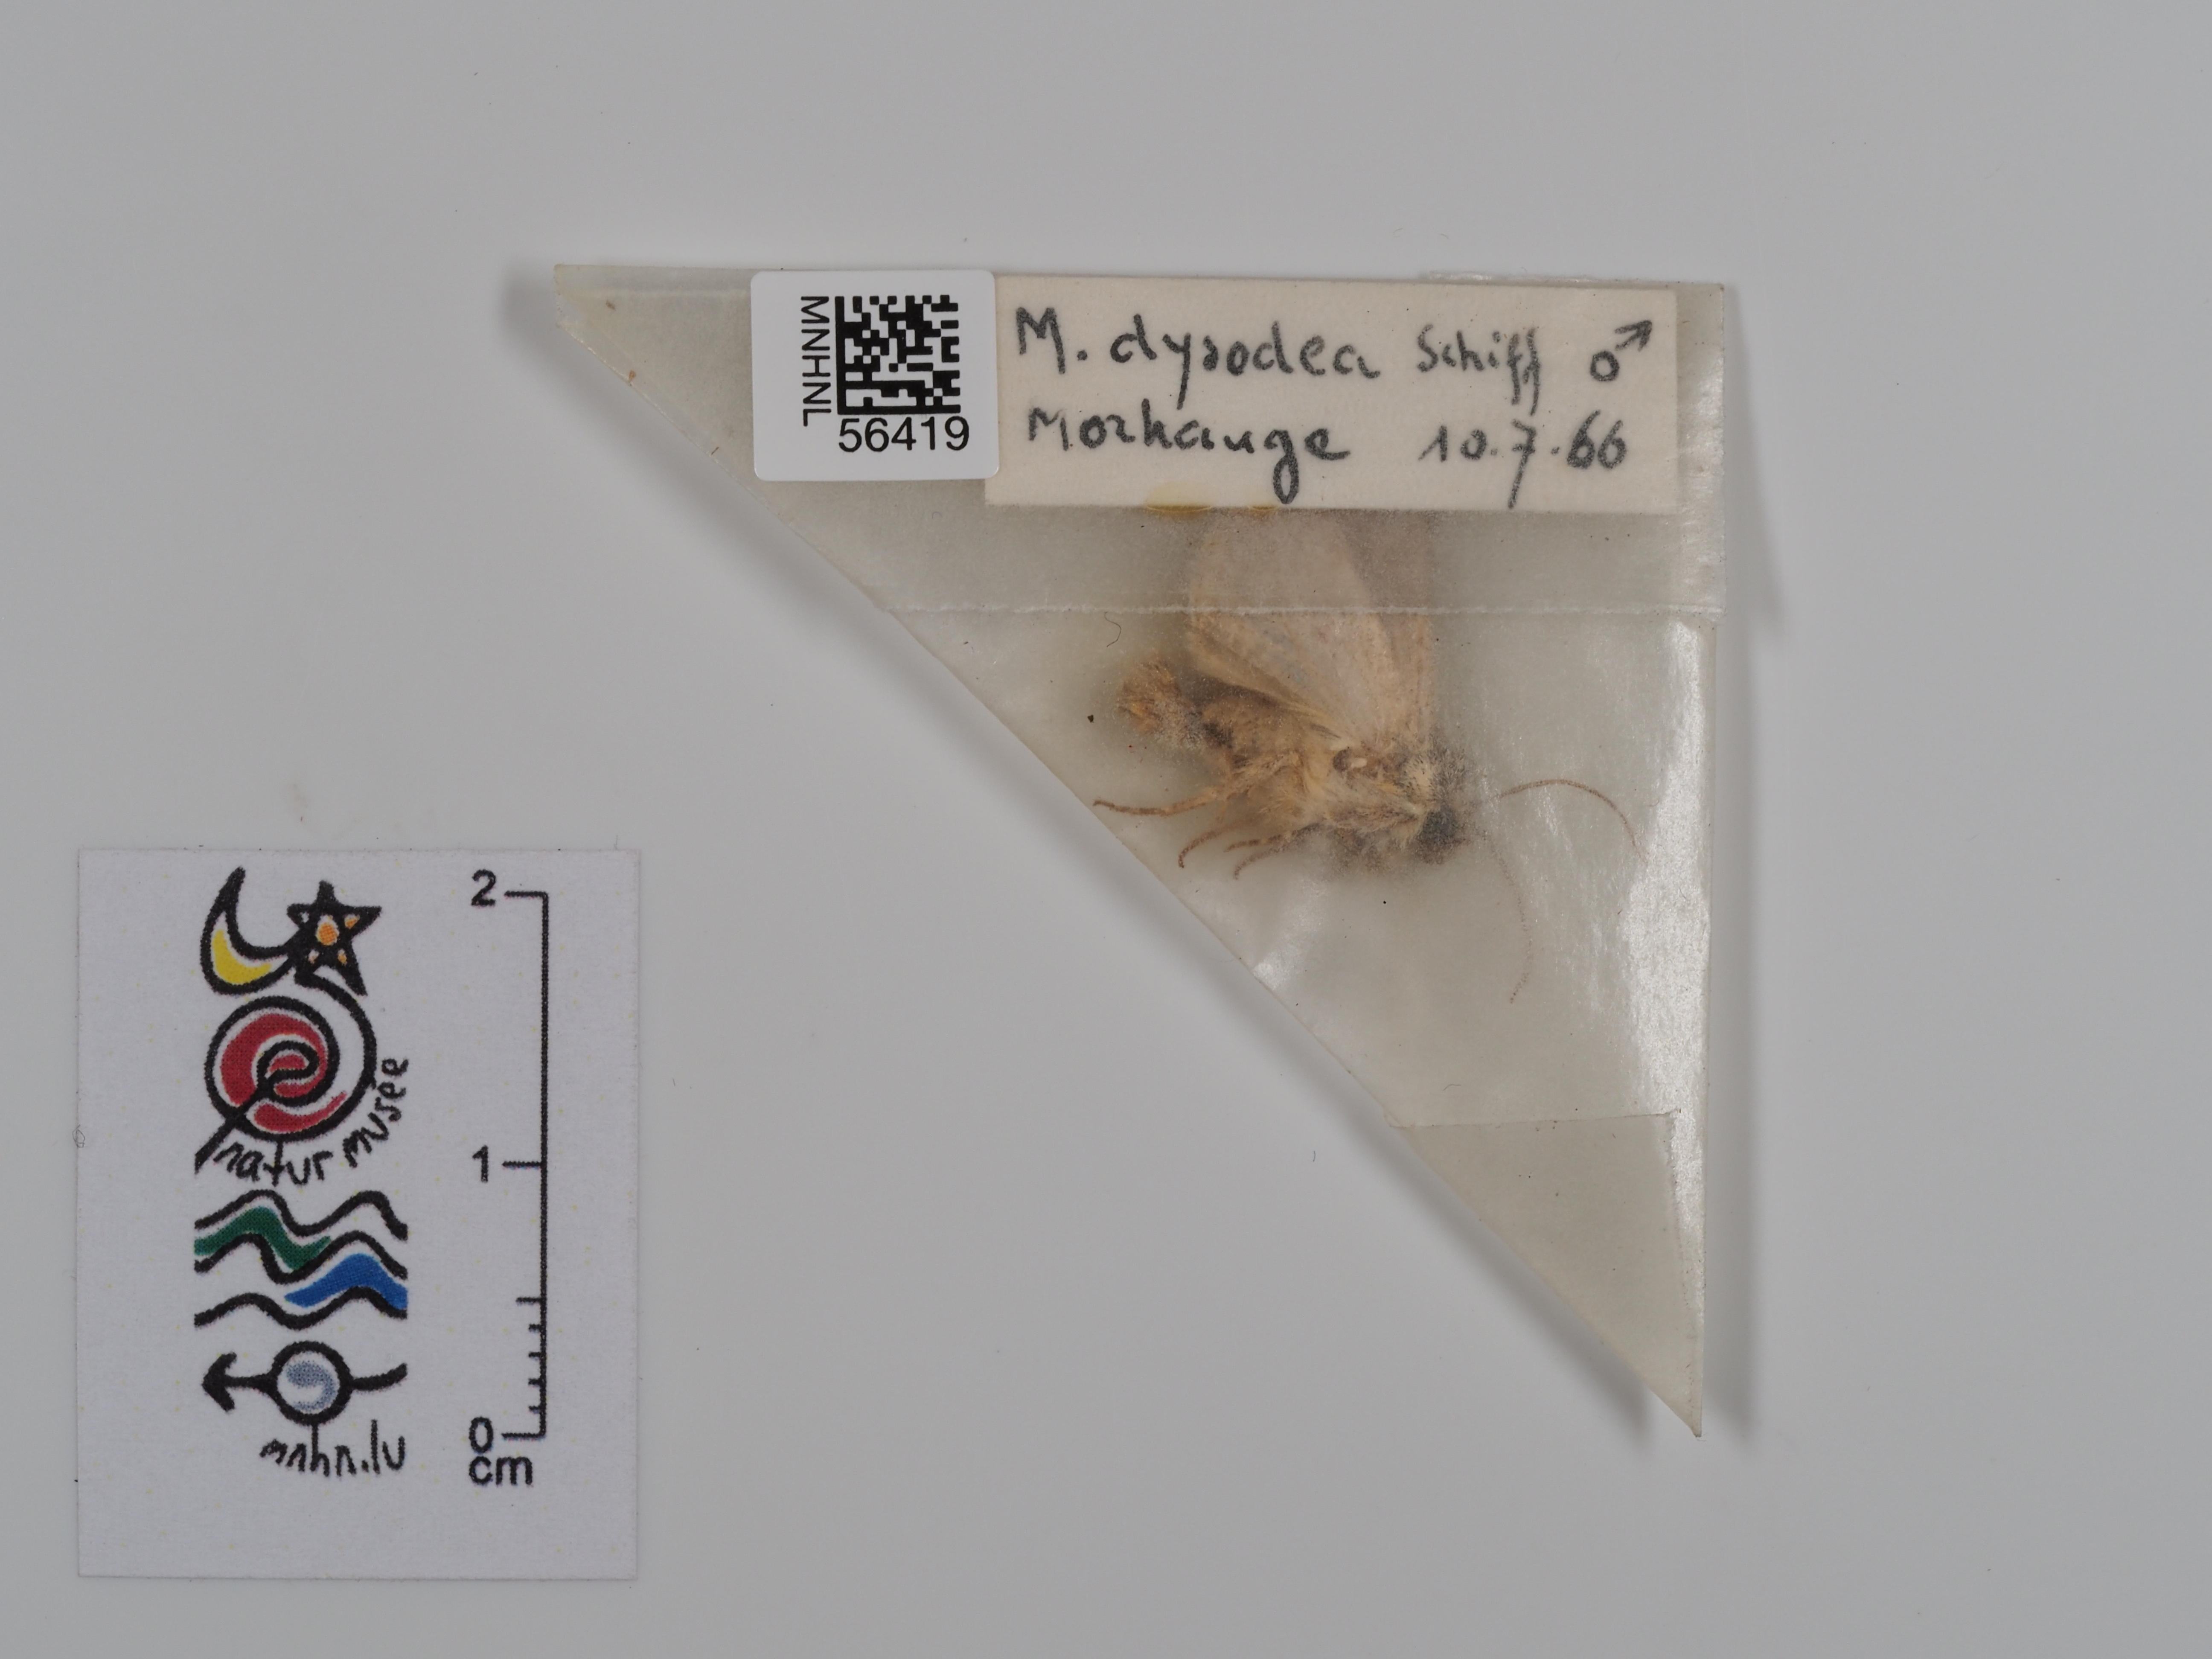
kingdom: Animalia
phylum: Arthropoda
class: Insecta
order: Lepidoptera
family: Noctuidae
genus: Hecatera
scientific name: Hecatera dysodea
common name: Small ranunculus
